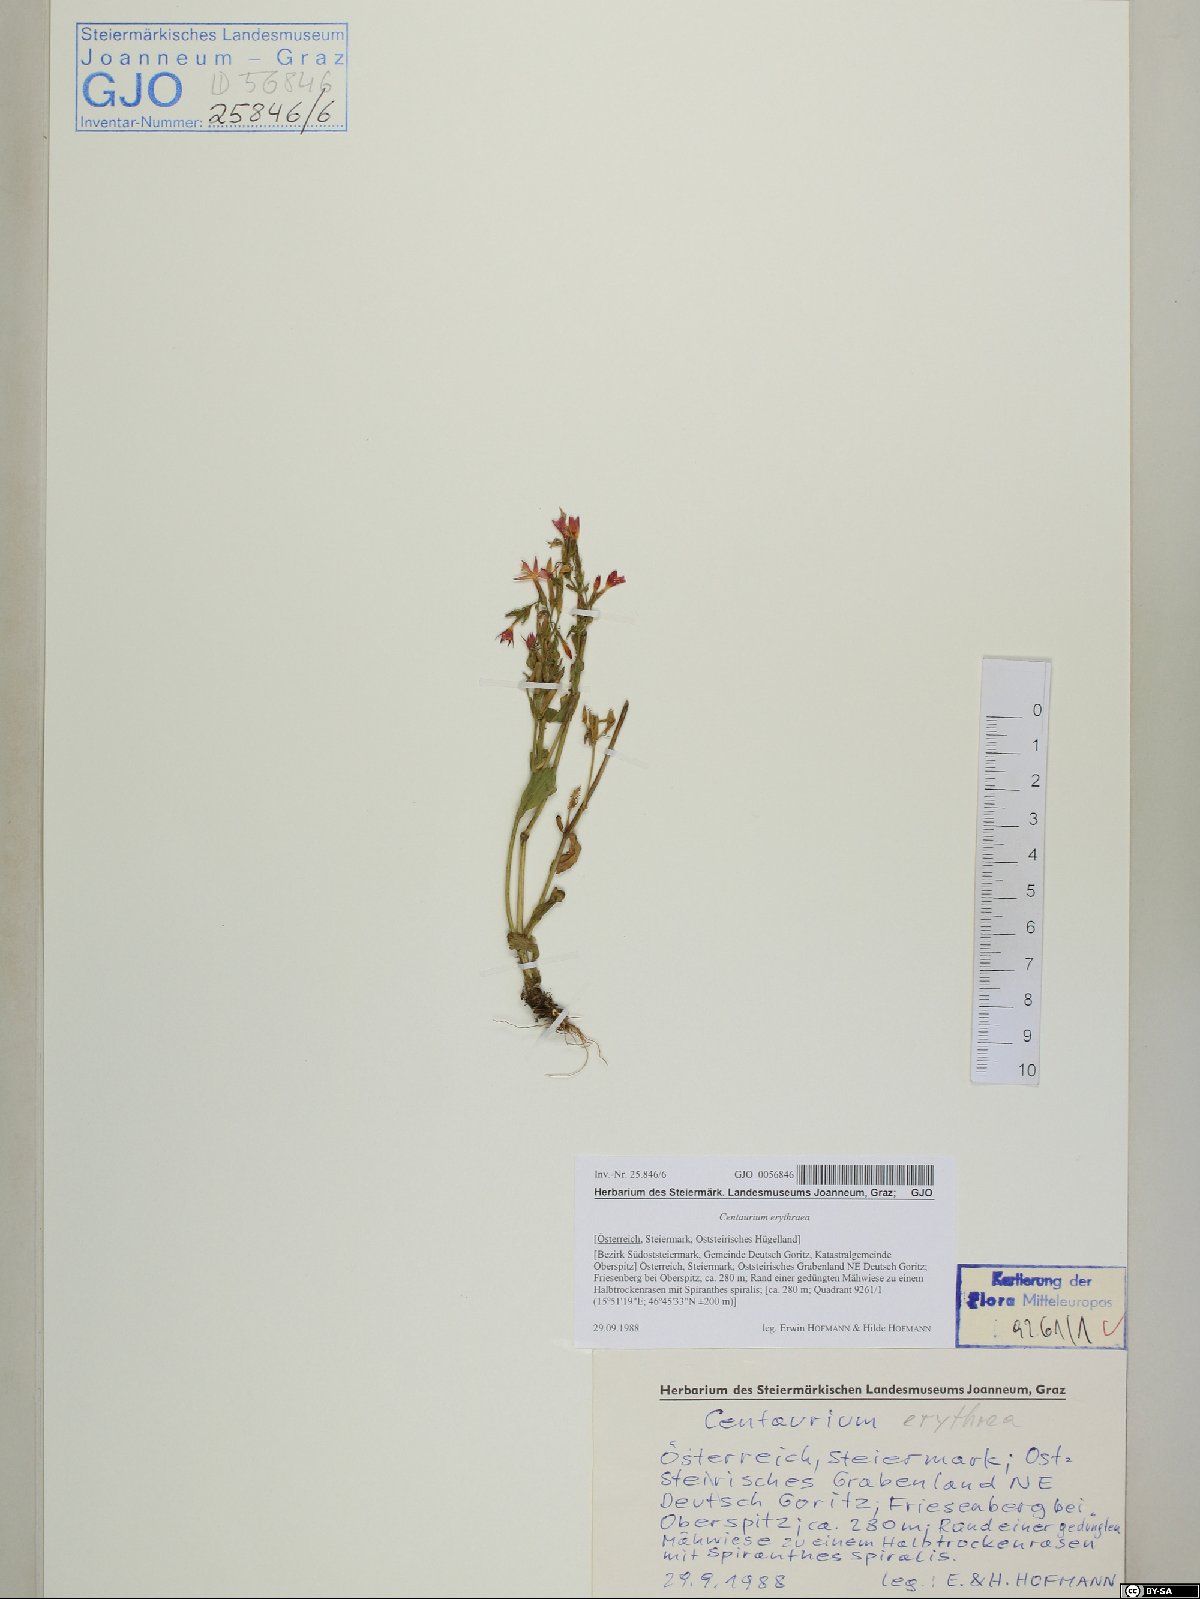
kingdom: Plantae
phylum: Tracheophyta
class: Magnoliopsida
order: Gentianales
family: Gentianaceae
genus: Centaurium
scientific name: Centaurium erythraea
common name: Common centaury
